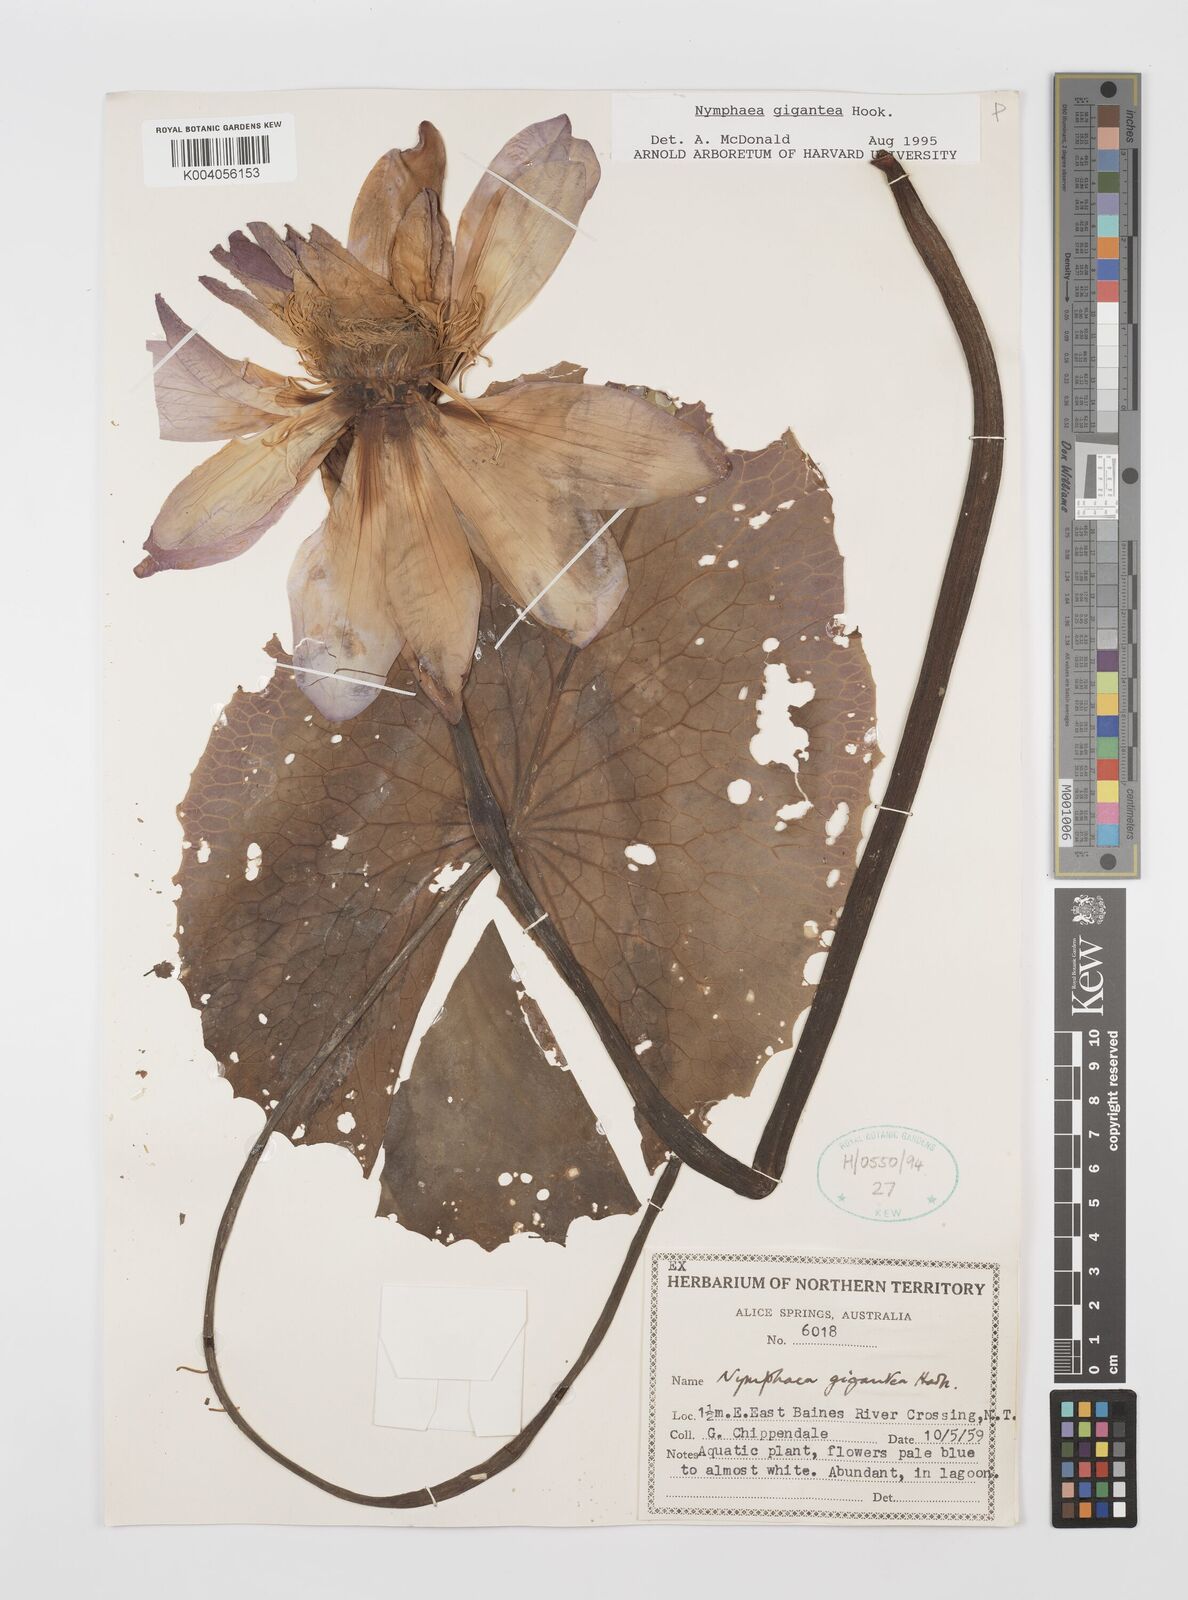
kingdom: Plantae
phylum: Tracheophyta
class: Magnoliopsida
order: Nymphaeales
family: Nymphaeaceae
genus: Nymphaea
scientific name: Nymphaea gigantea
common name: Giant water-lily
